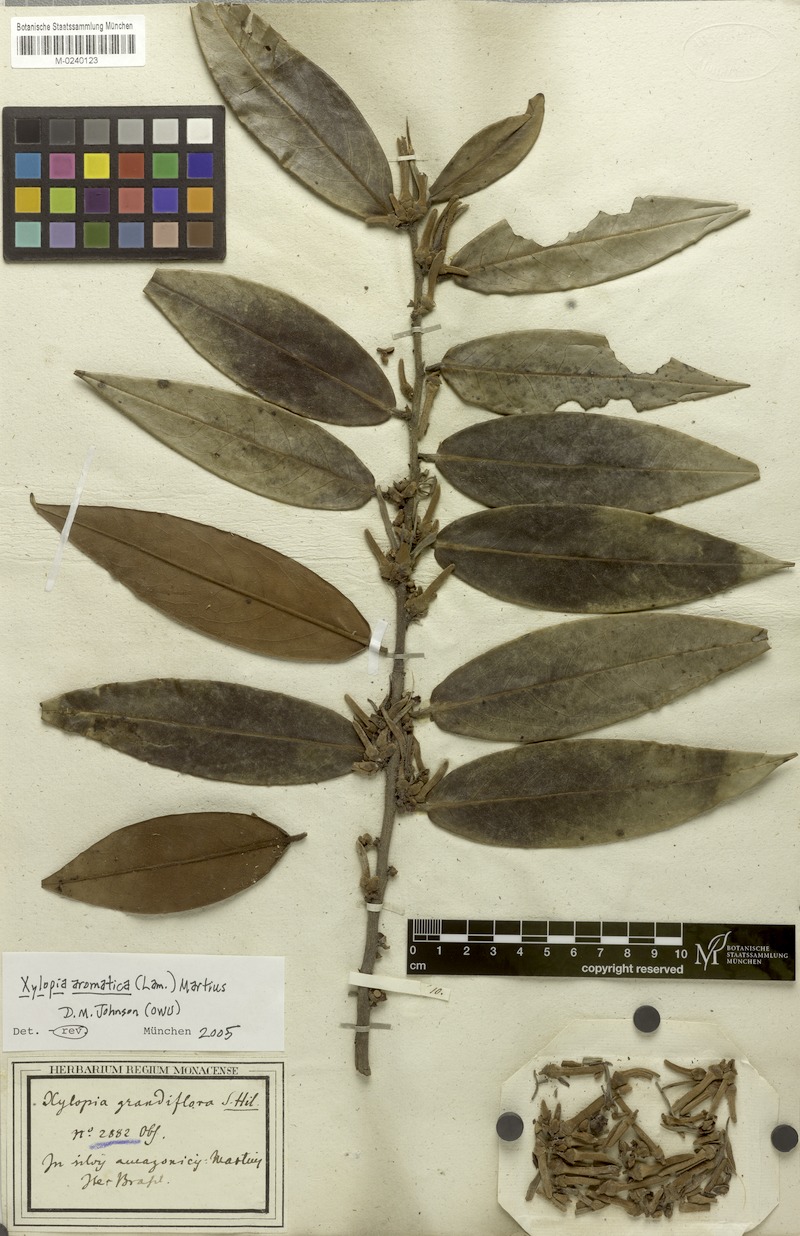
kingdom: Plantae
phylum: Tracheophyta
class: Magnoliopsida
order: Magnoliales
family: Annonaceae
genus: Xylopia
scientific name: Xylopia aromatica
